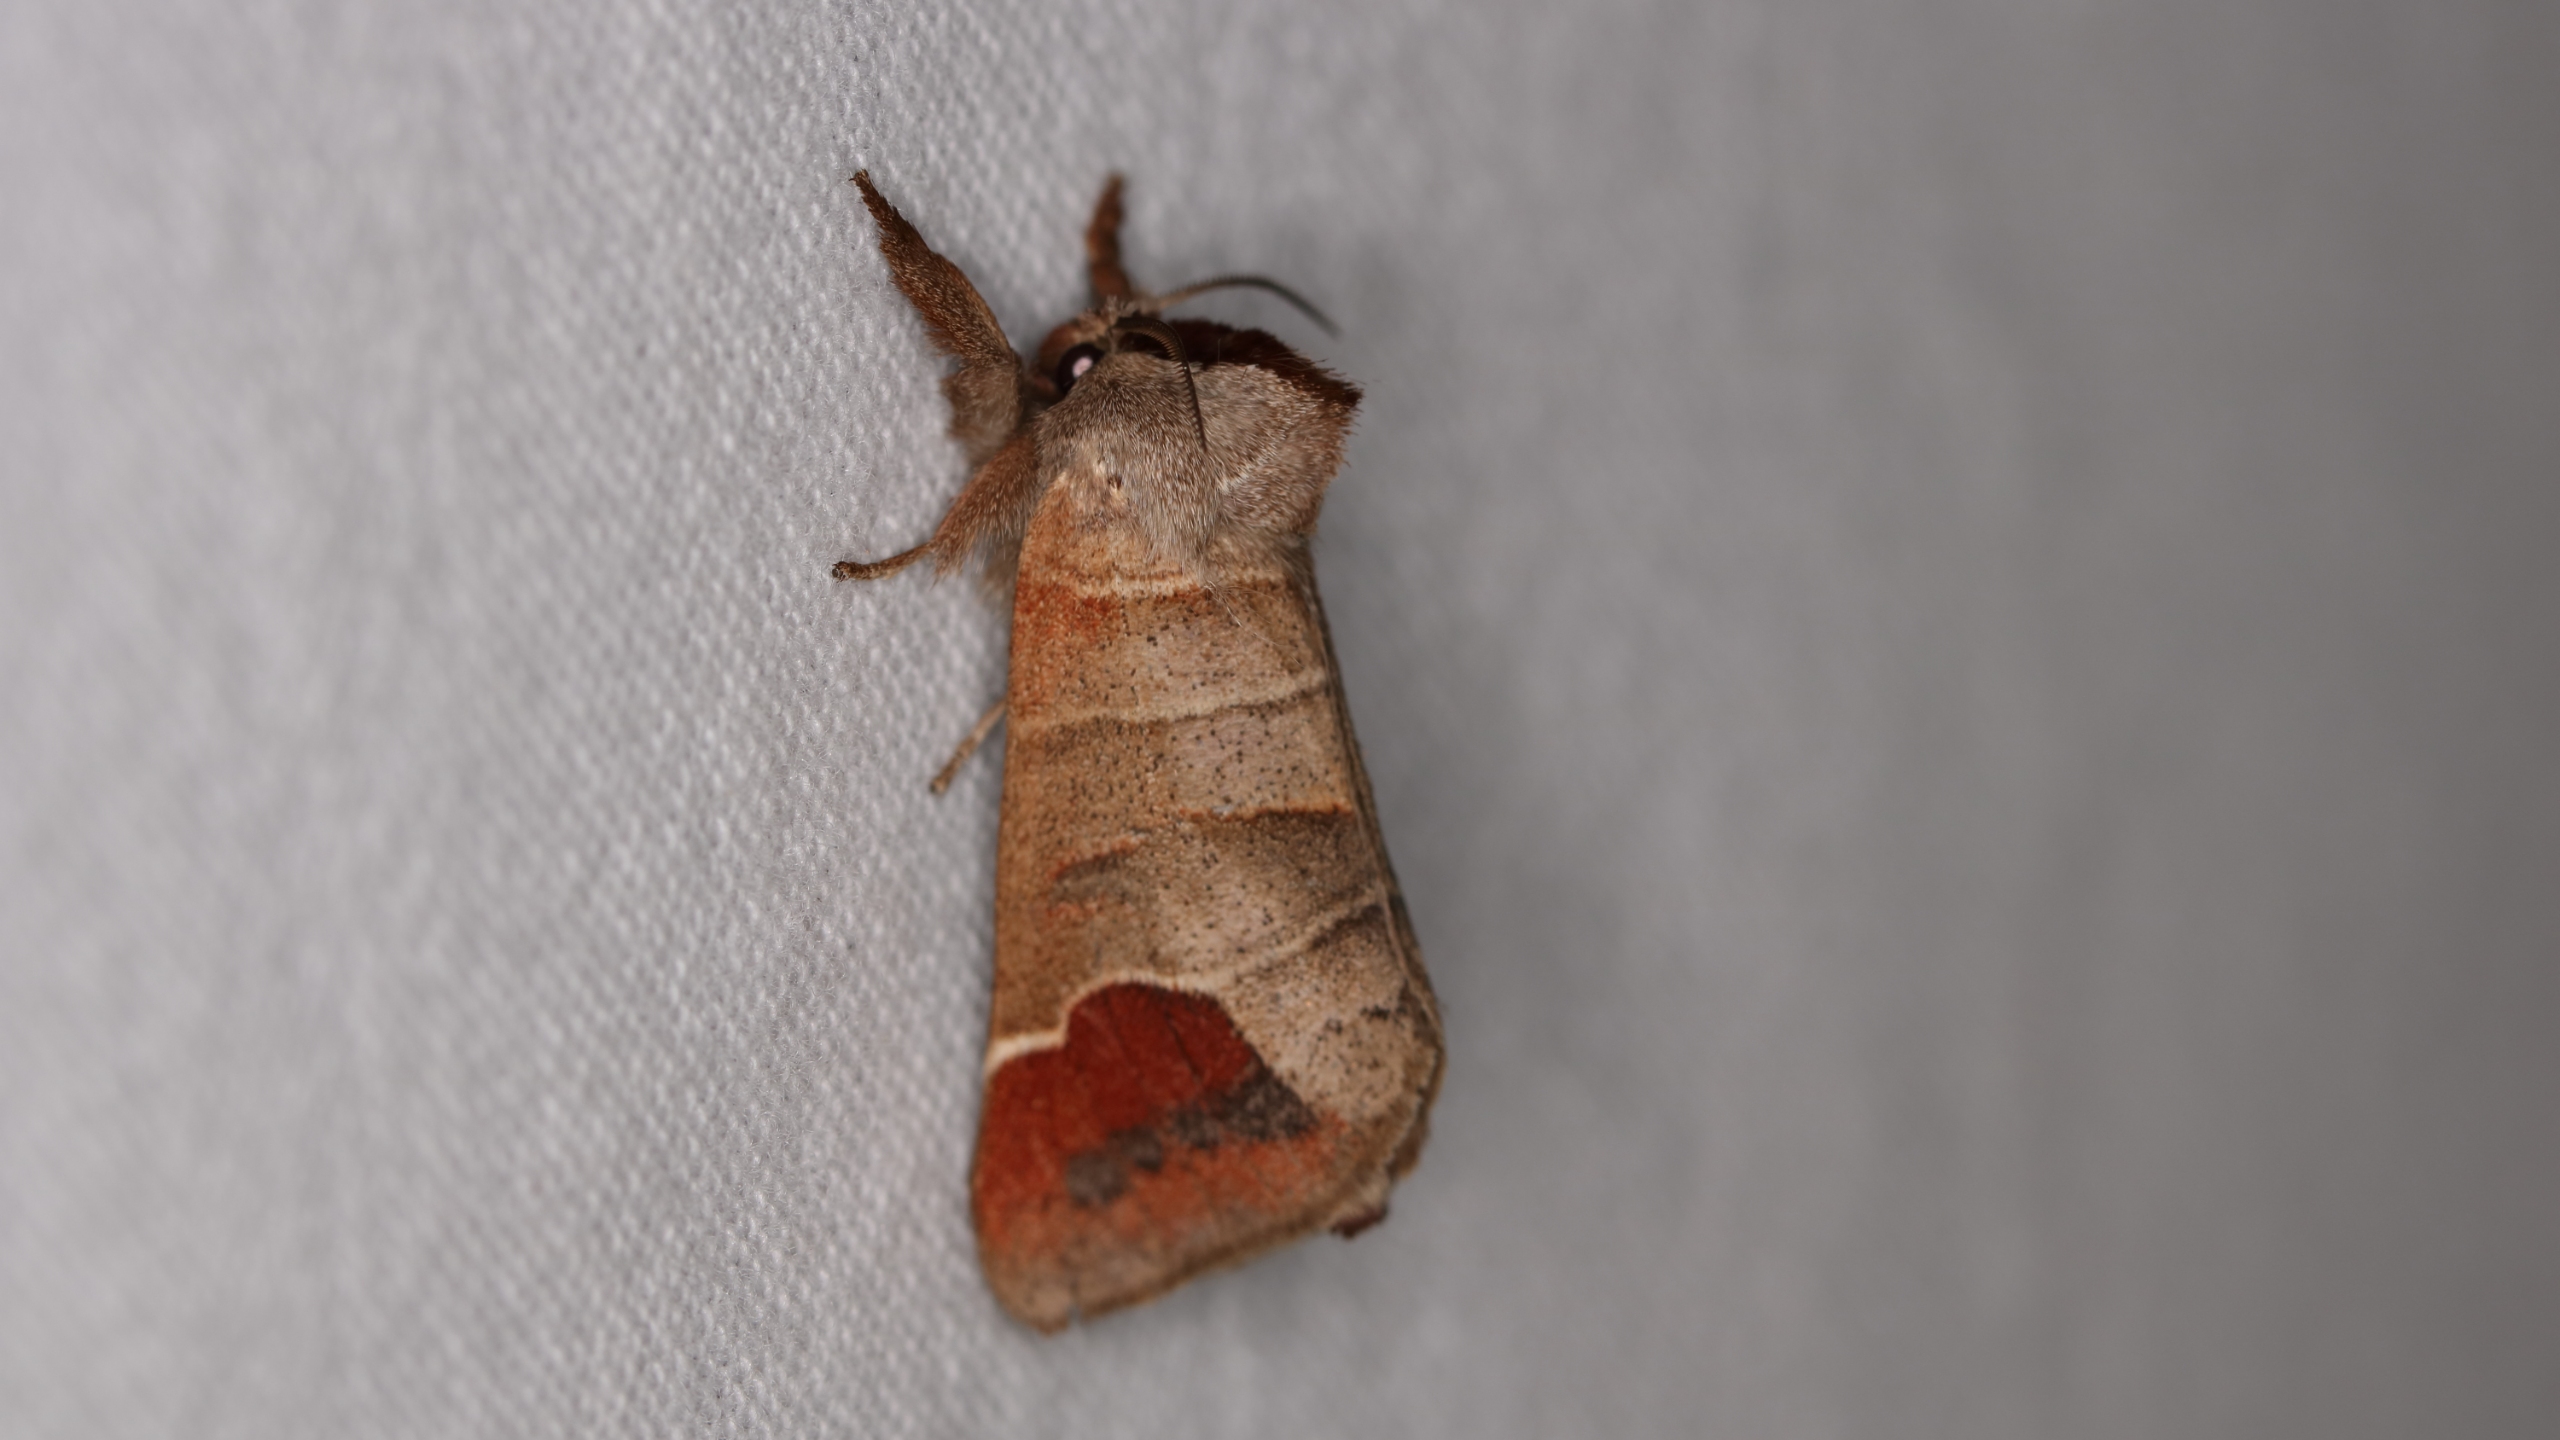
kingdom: Animalia
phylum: Arthropoda
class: Insecta
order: Lepidoptera
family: Notodontidae
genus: Clostera
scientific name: Clostera curtula
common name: Lille måneplet
